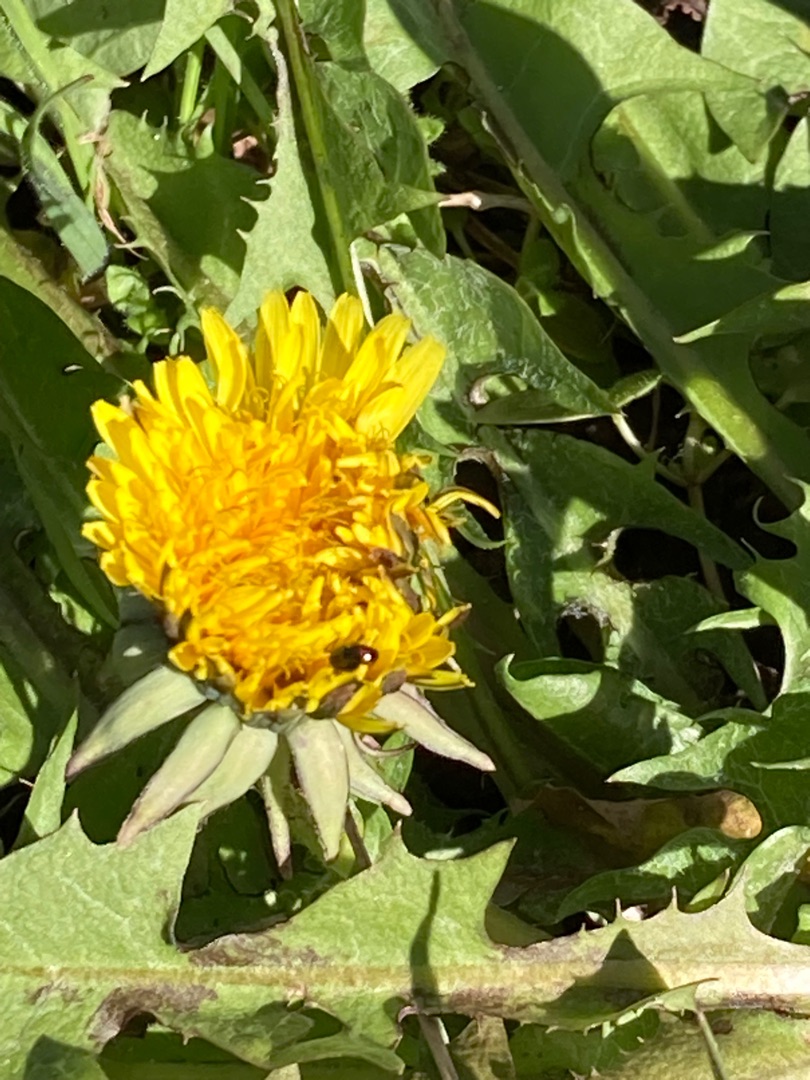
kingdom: Plantae
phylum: Tracheophyta
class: Magnoliopsida
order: Asterales
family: Asteraceae
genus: Taraxacum
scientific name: Taraxacum
